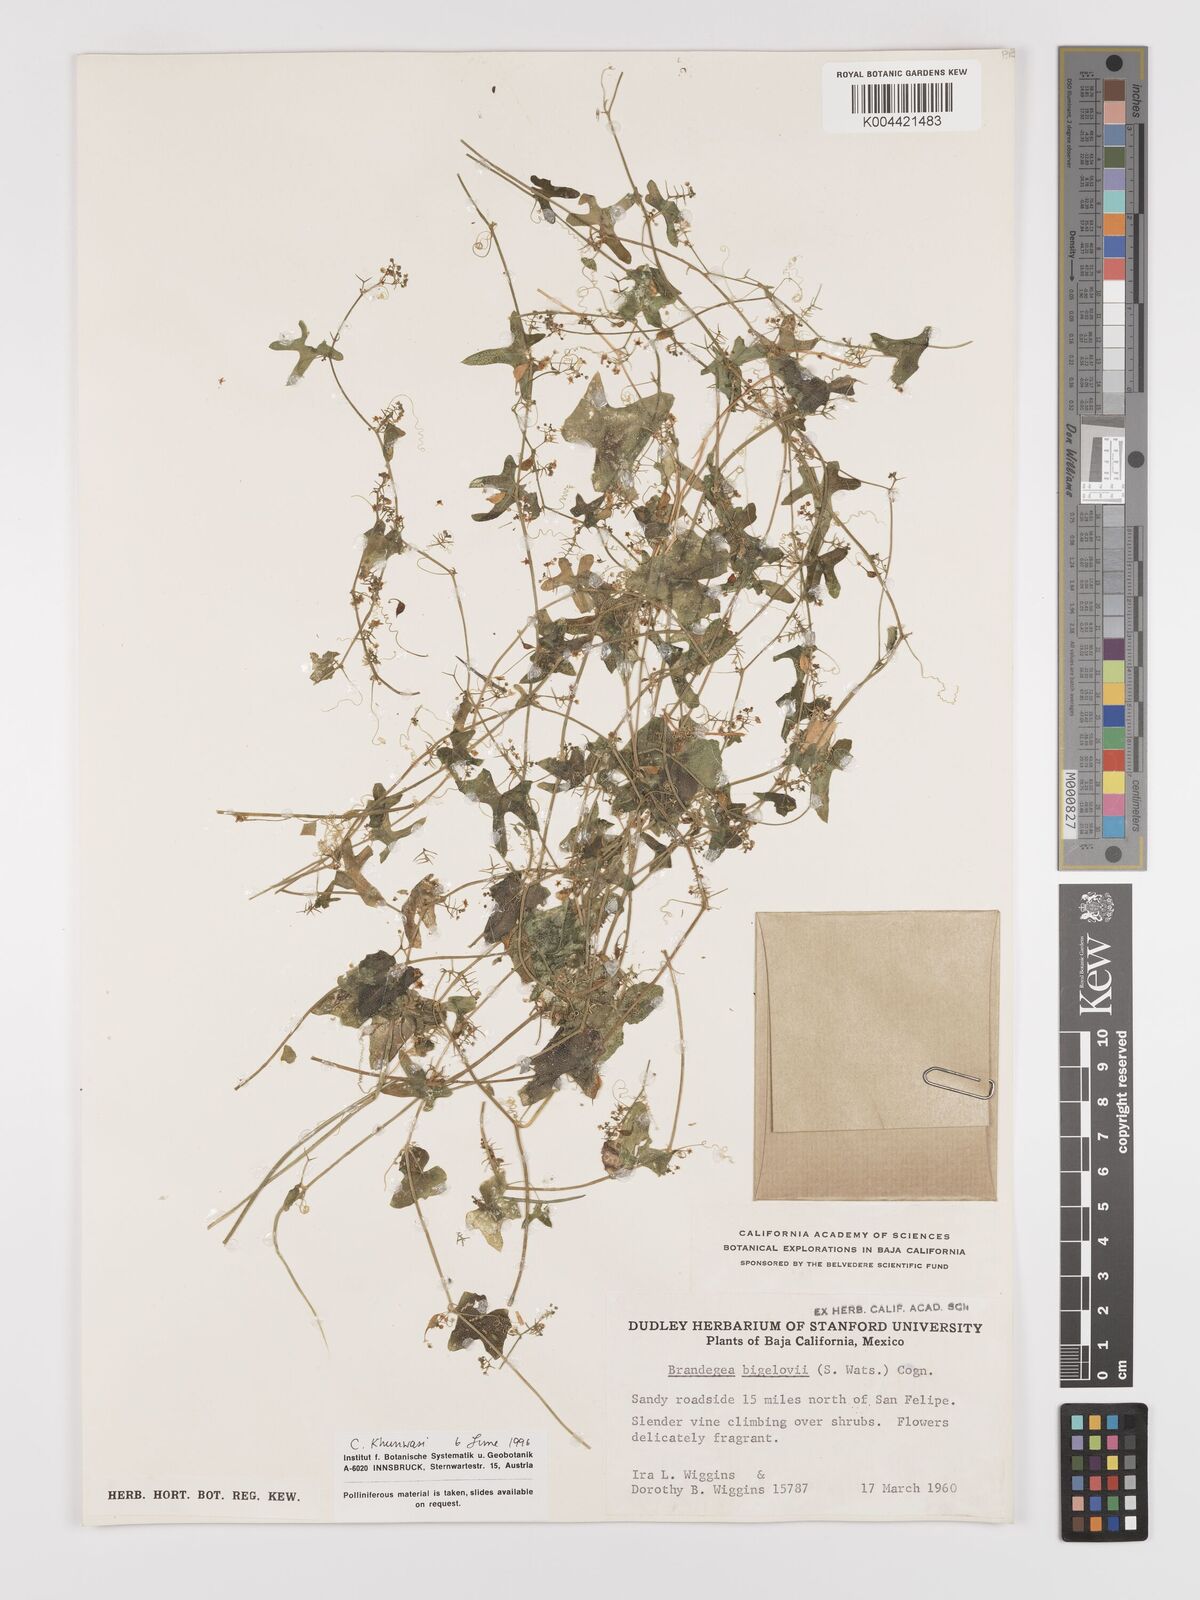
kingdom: Plantae
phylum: Tracheophyta
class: Magnoliopsida
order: Cucurbitales
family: Cucurbitaceae
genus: Echinopepon
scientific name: Echinopepon bigelovii
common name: Desert starvine
